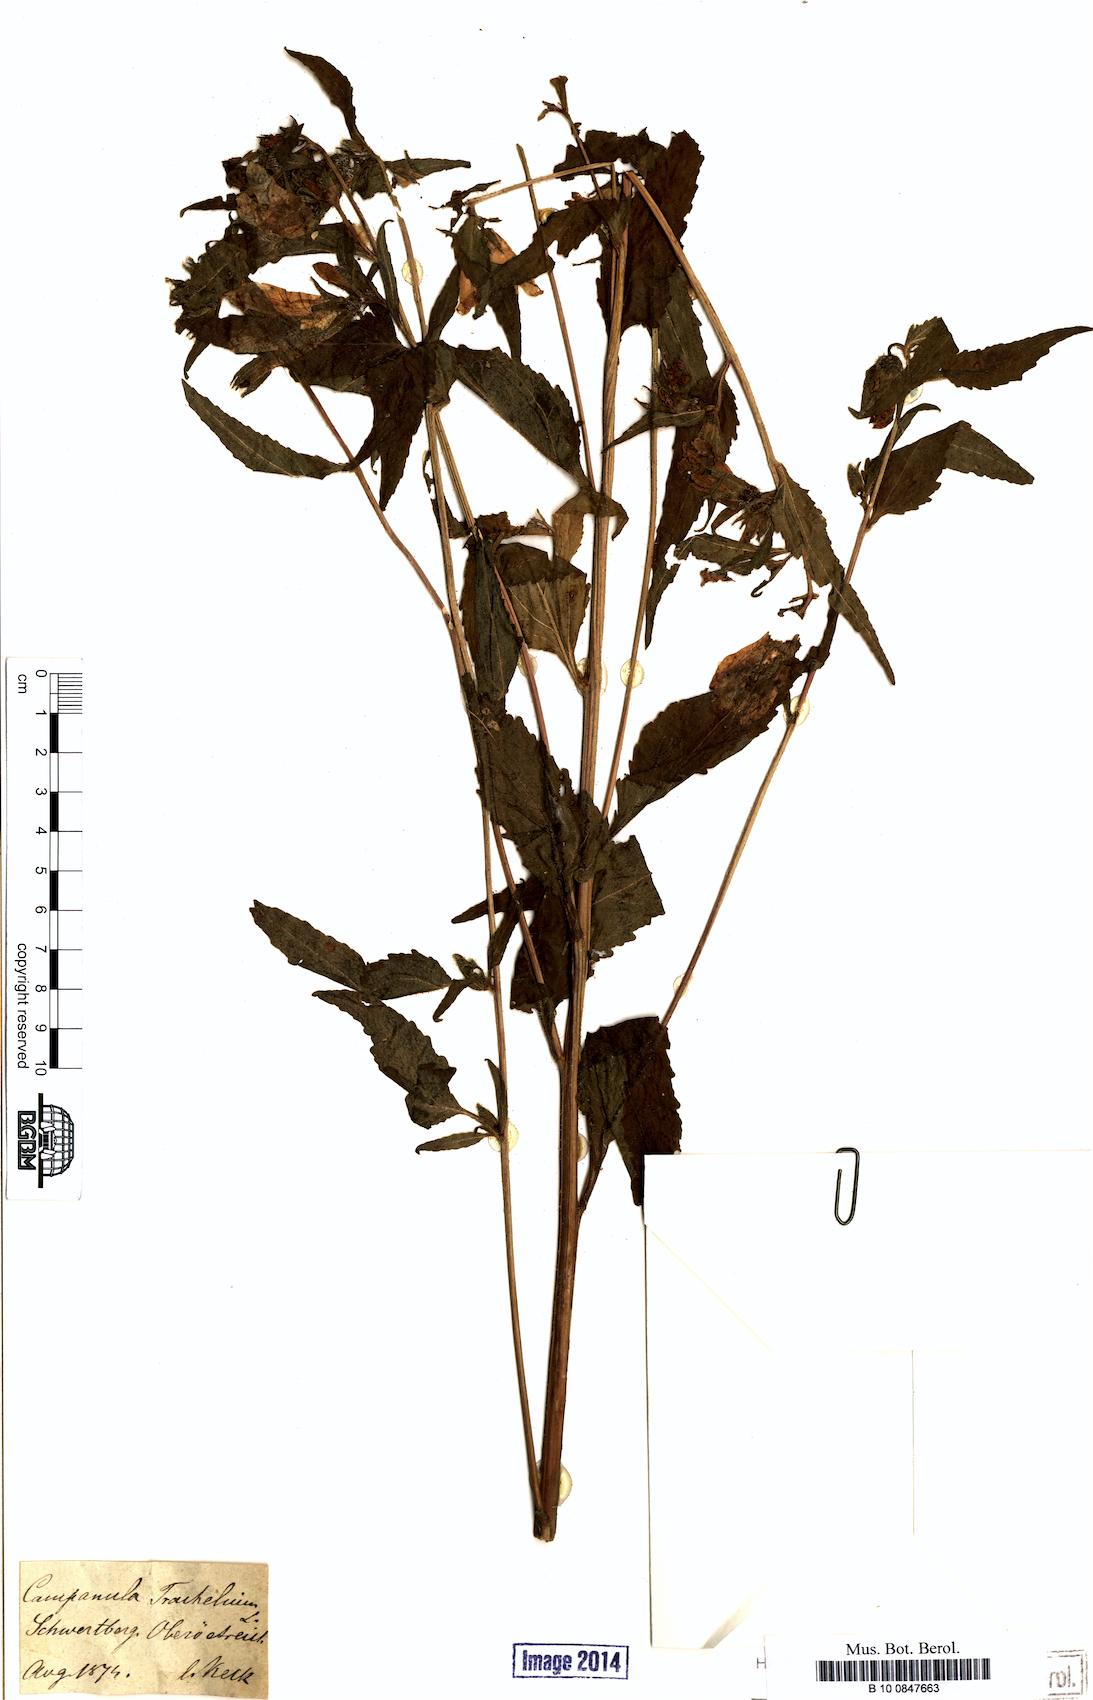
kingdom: Plantae
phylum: Tracheophyta
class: Magnoliopsida
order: Asterales
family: Campanulaceae
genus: Campanula
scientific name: Campanula trachelium
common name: Nettle-leaved bellflower
